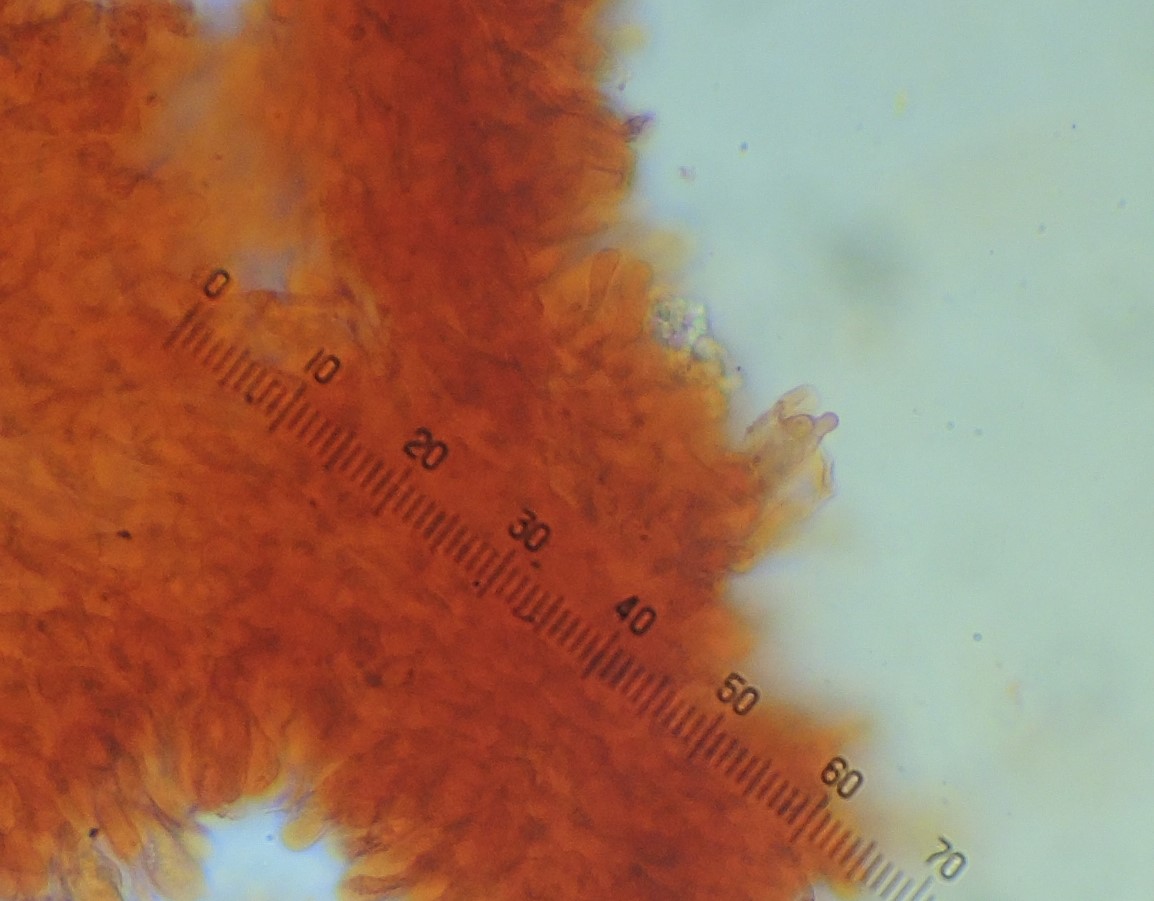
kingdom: Fungi
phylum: Basidiomycota
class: Agaricomycetes
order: Agaricales
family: Entolomataceae
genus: Rhodocybe
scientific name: Rhodocybe tugrulii
